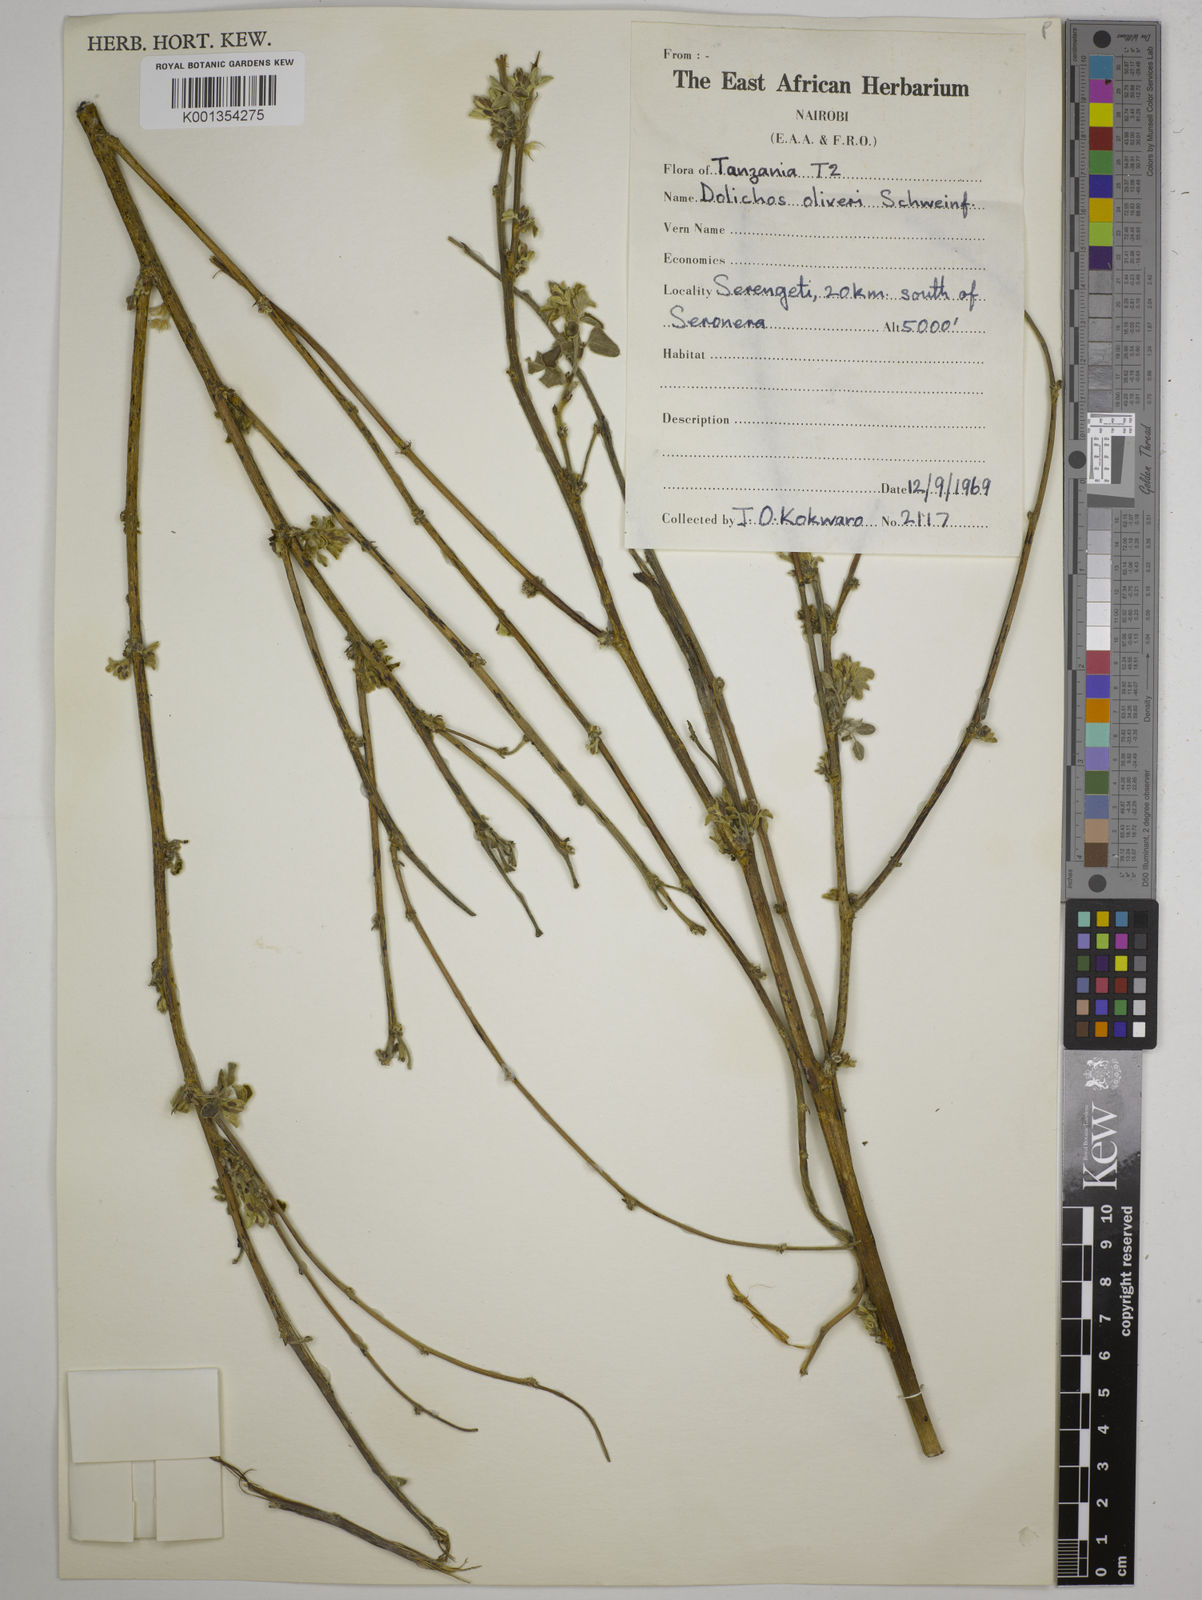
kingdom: Plantae
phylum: Tracheophyta
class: Magnoliopsida
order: Fabales
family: Fabaceae
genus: Dolichos
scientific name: Dolichos oliveri
